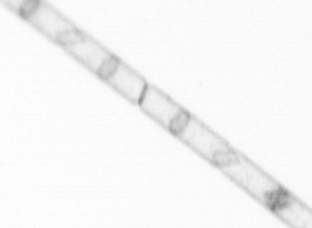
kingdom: Chromista
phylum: Ochrophyta
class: Bacillariophyceae
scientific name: Bacillariophyceae
